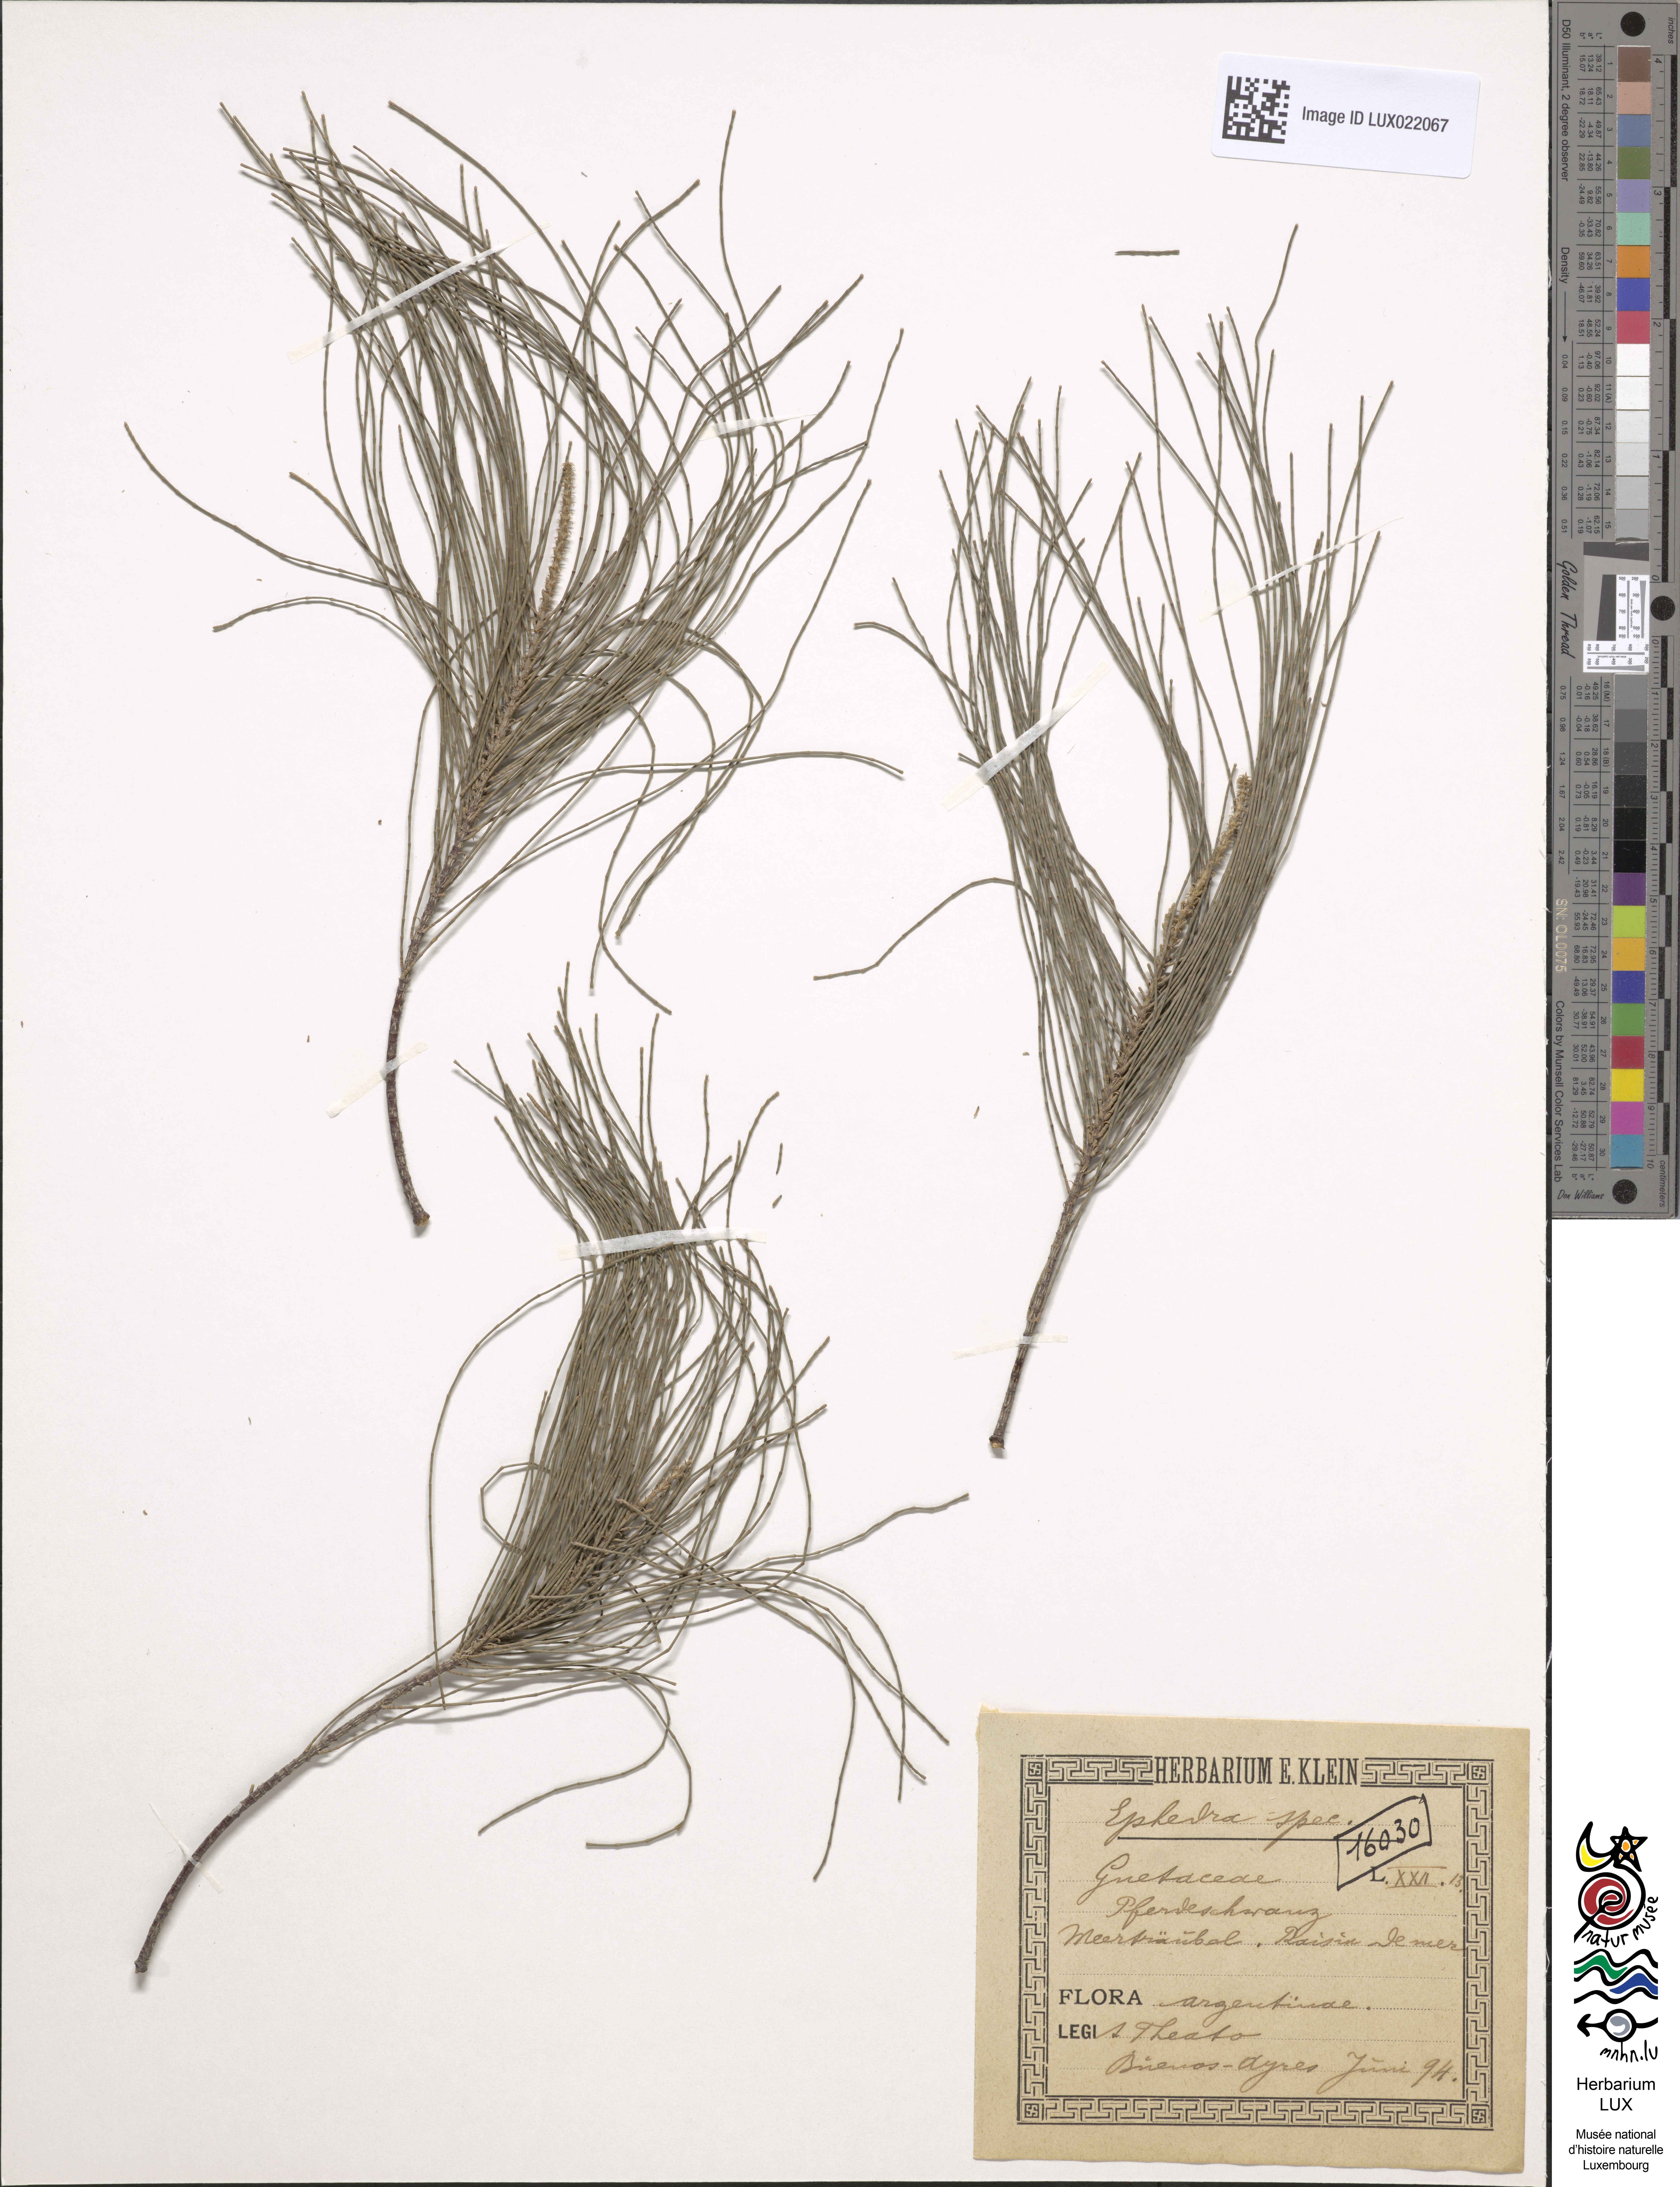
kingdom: Plantae
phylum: Tracheophyta
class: Gnetopsida
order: Ephedrales
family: Ephedraceae
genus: Ephedra
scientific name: Ephedra
